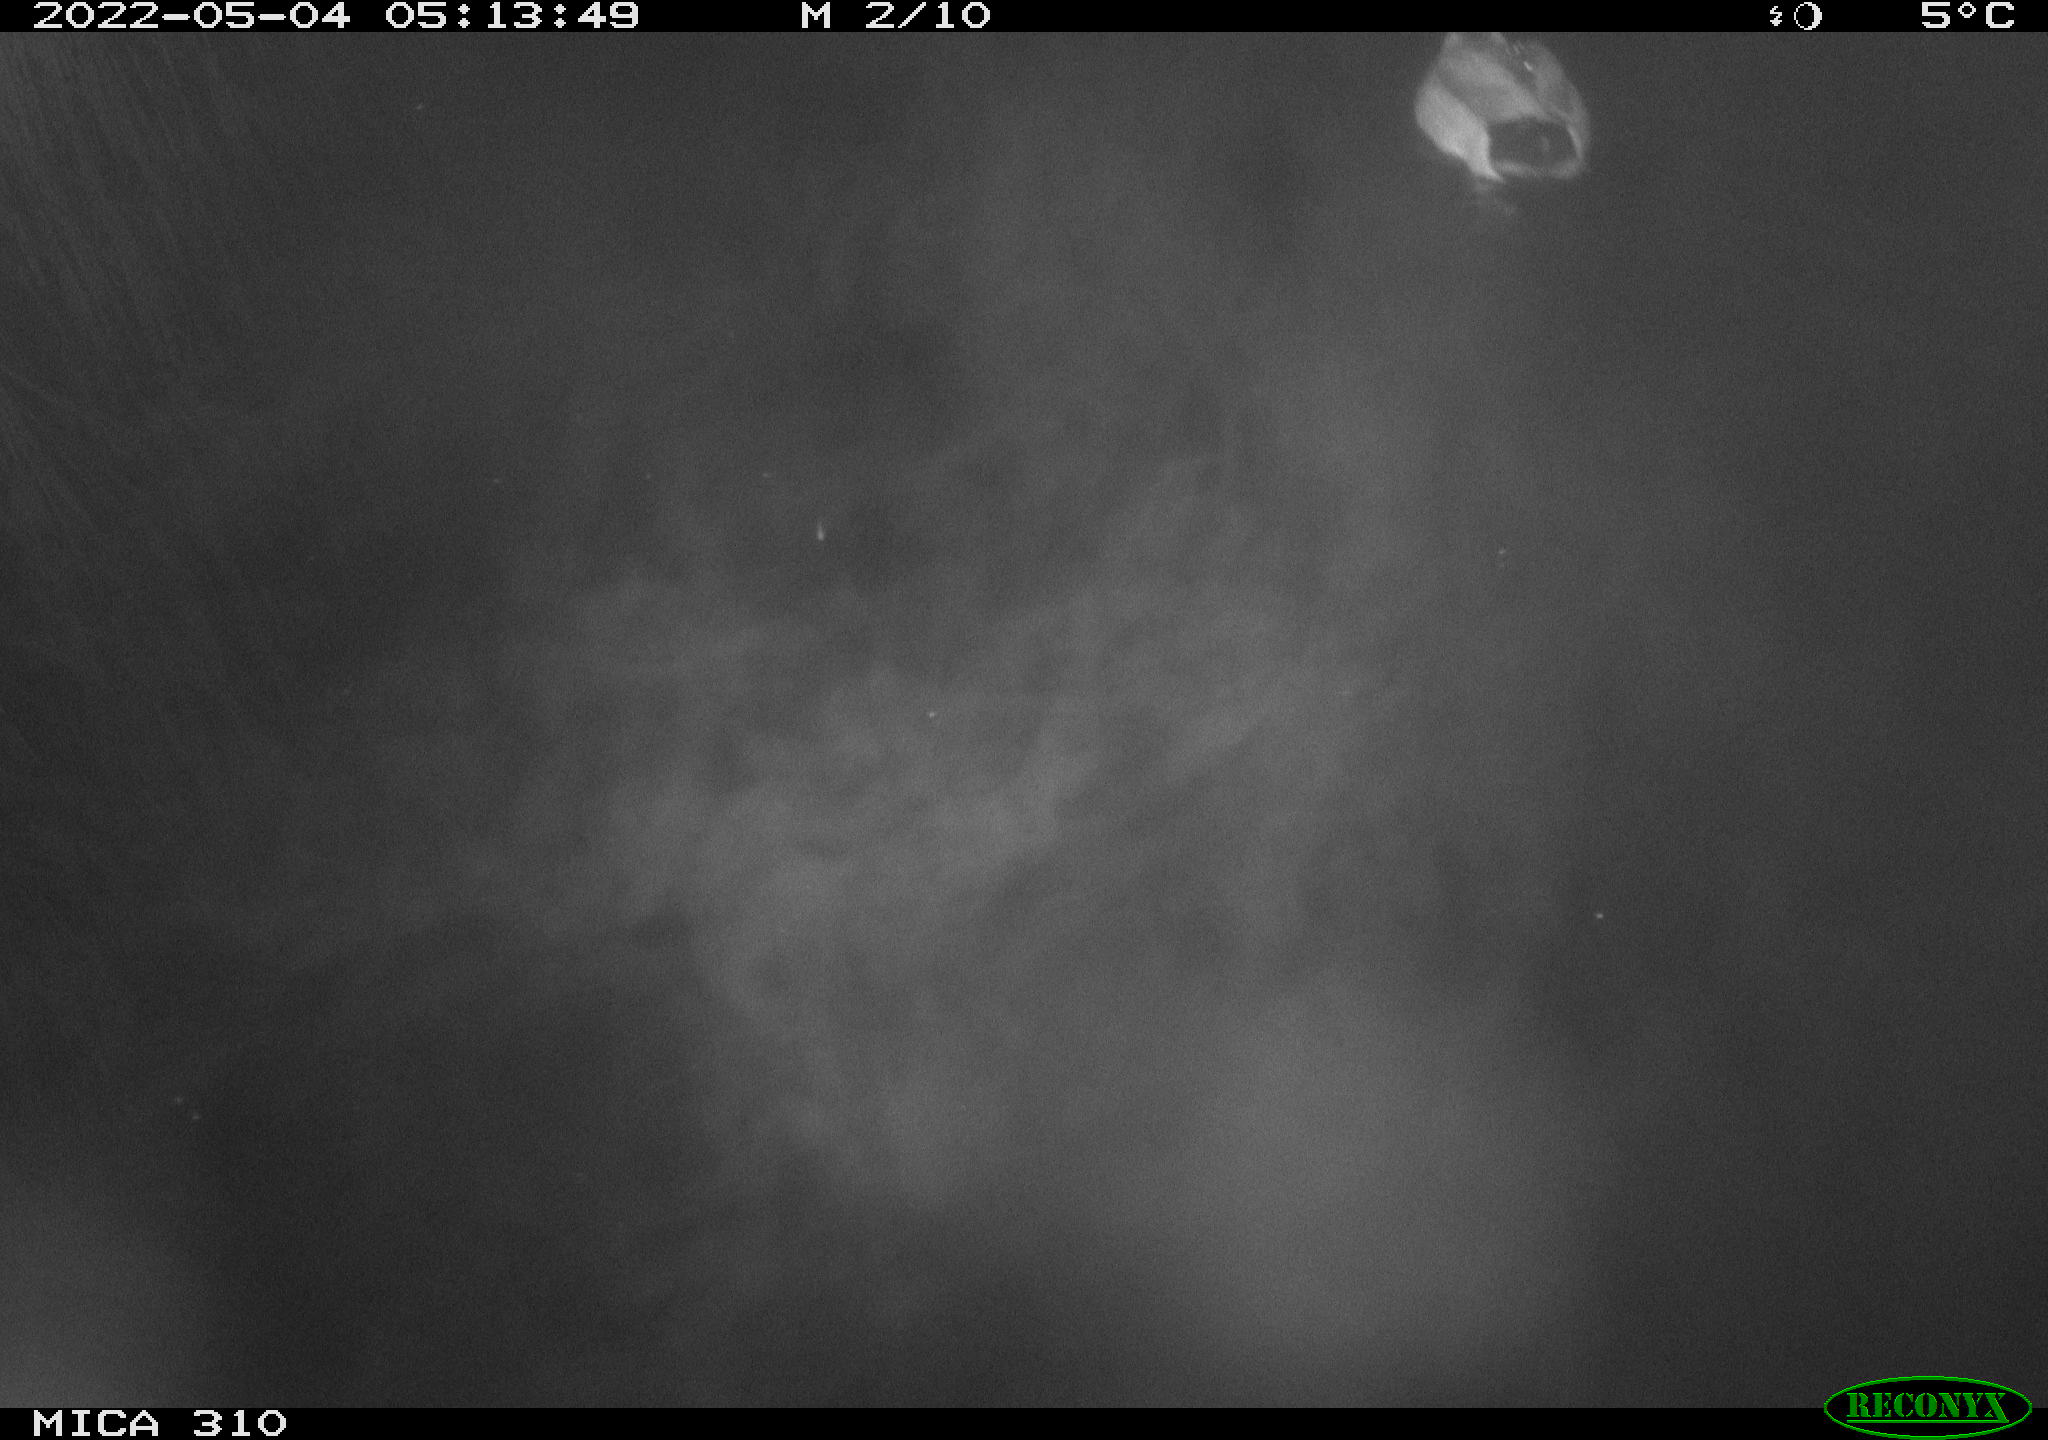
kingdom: Animalia
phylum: Chordata
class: Aves
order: Gruiformes
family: Rallidae
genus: Fulica
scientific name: Fulica atra
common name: Eurasian coot
